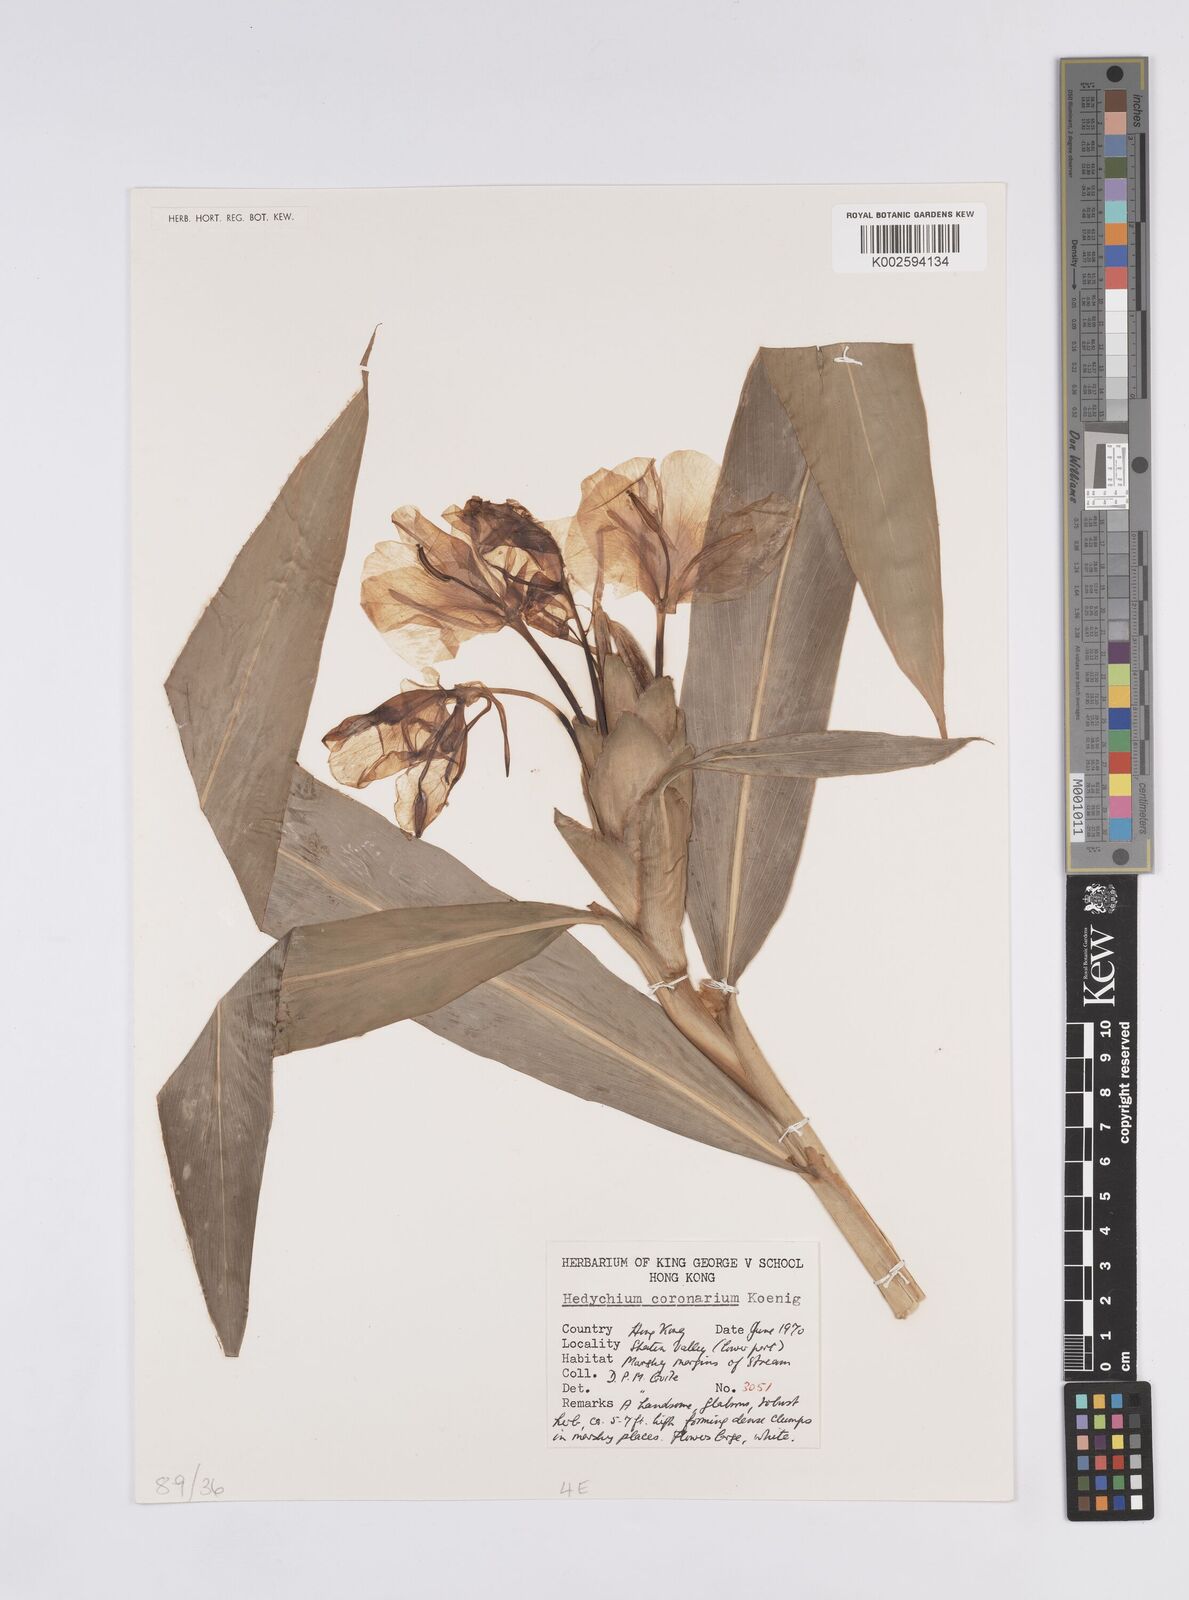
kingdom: Plantae
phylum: Tracheophyta
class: Liliopsida
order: Zingiberales
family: Zingiberaceae
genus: Hedychium
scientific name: Hedychium coronarium
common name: White garland-lily
